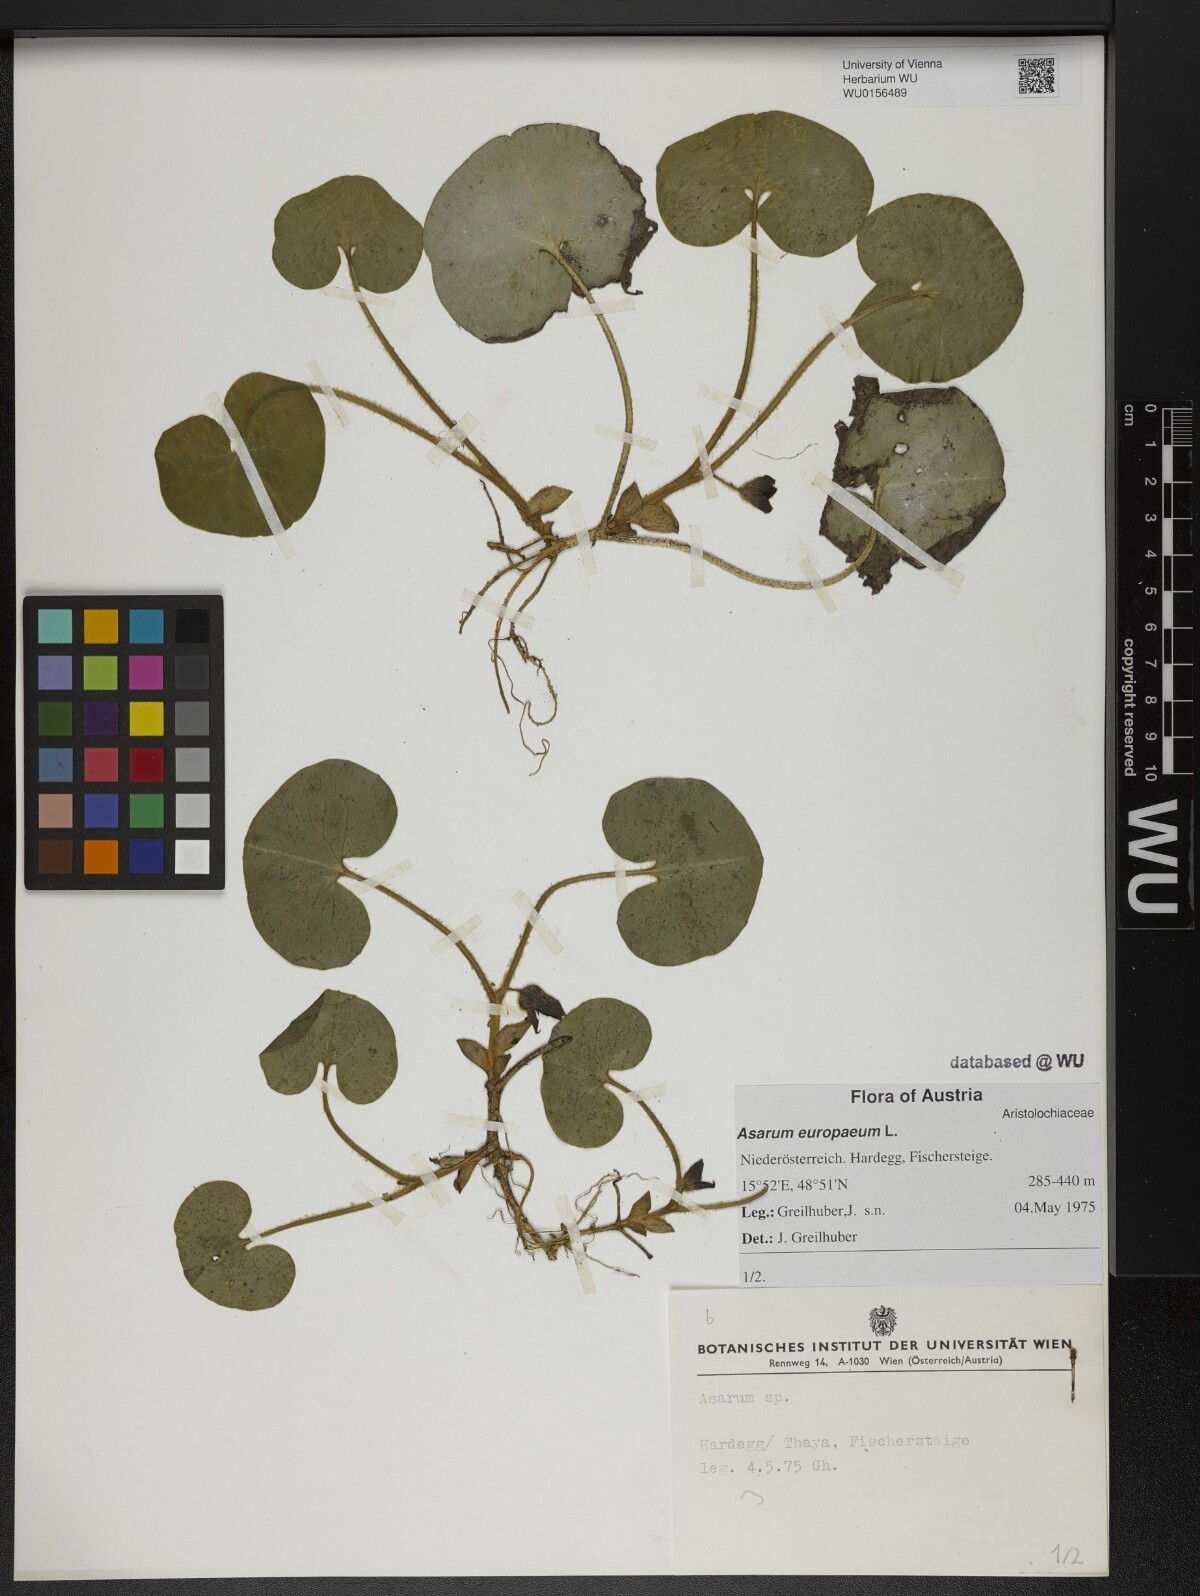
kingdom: Plantae
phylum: Tracheophyta
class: Magnoliopsida
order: Piperales
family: Aristolochiaceae
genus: Asarum
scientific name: Asarum europaeum
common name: Asarabacca
